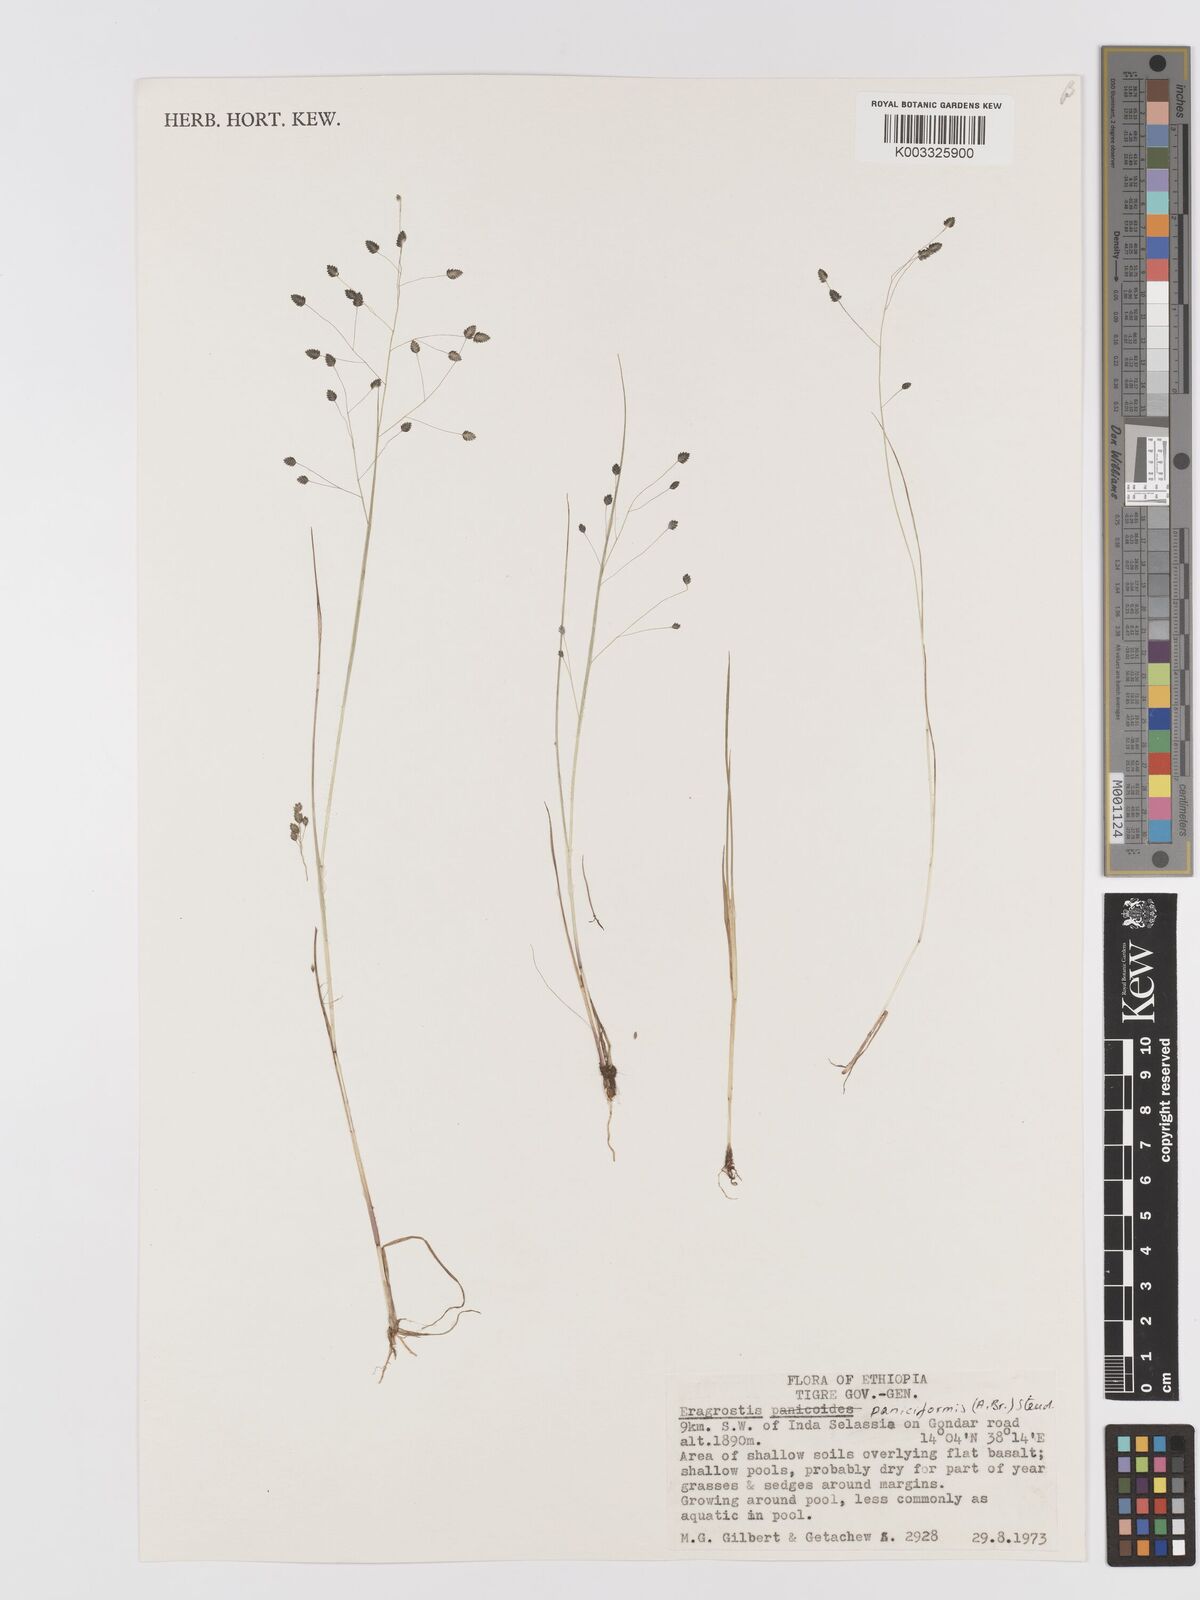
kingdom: Plantae
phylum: Tracheophyta
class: Liliopsida
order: Poales
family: Poaceae
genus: Eragrostis
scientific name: Eragrostis paniciformis
